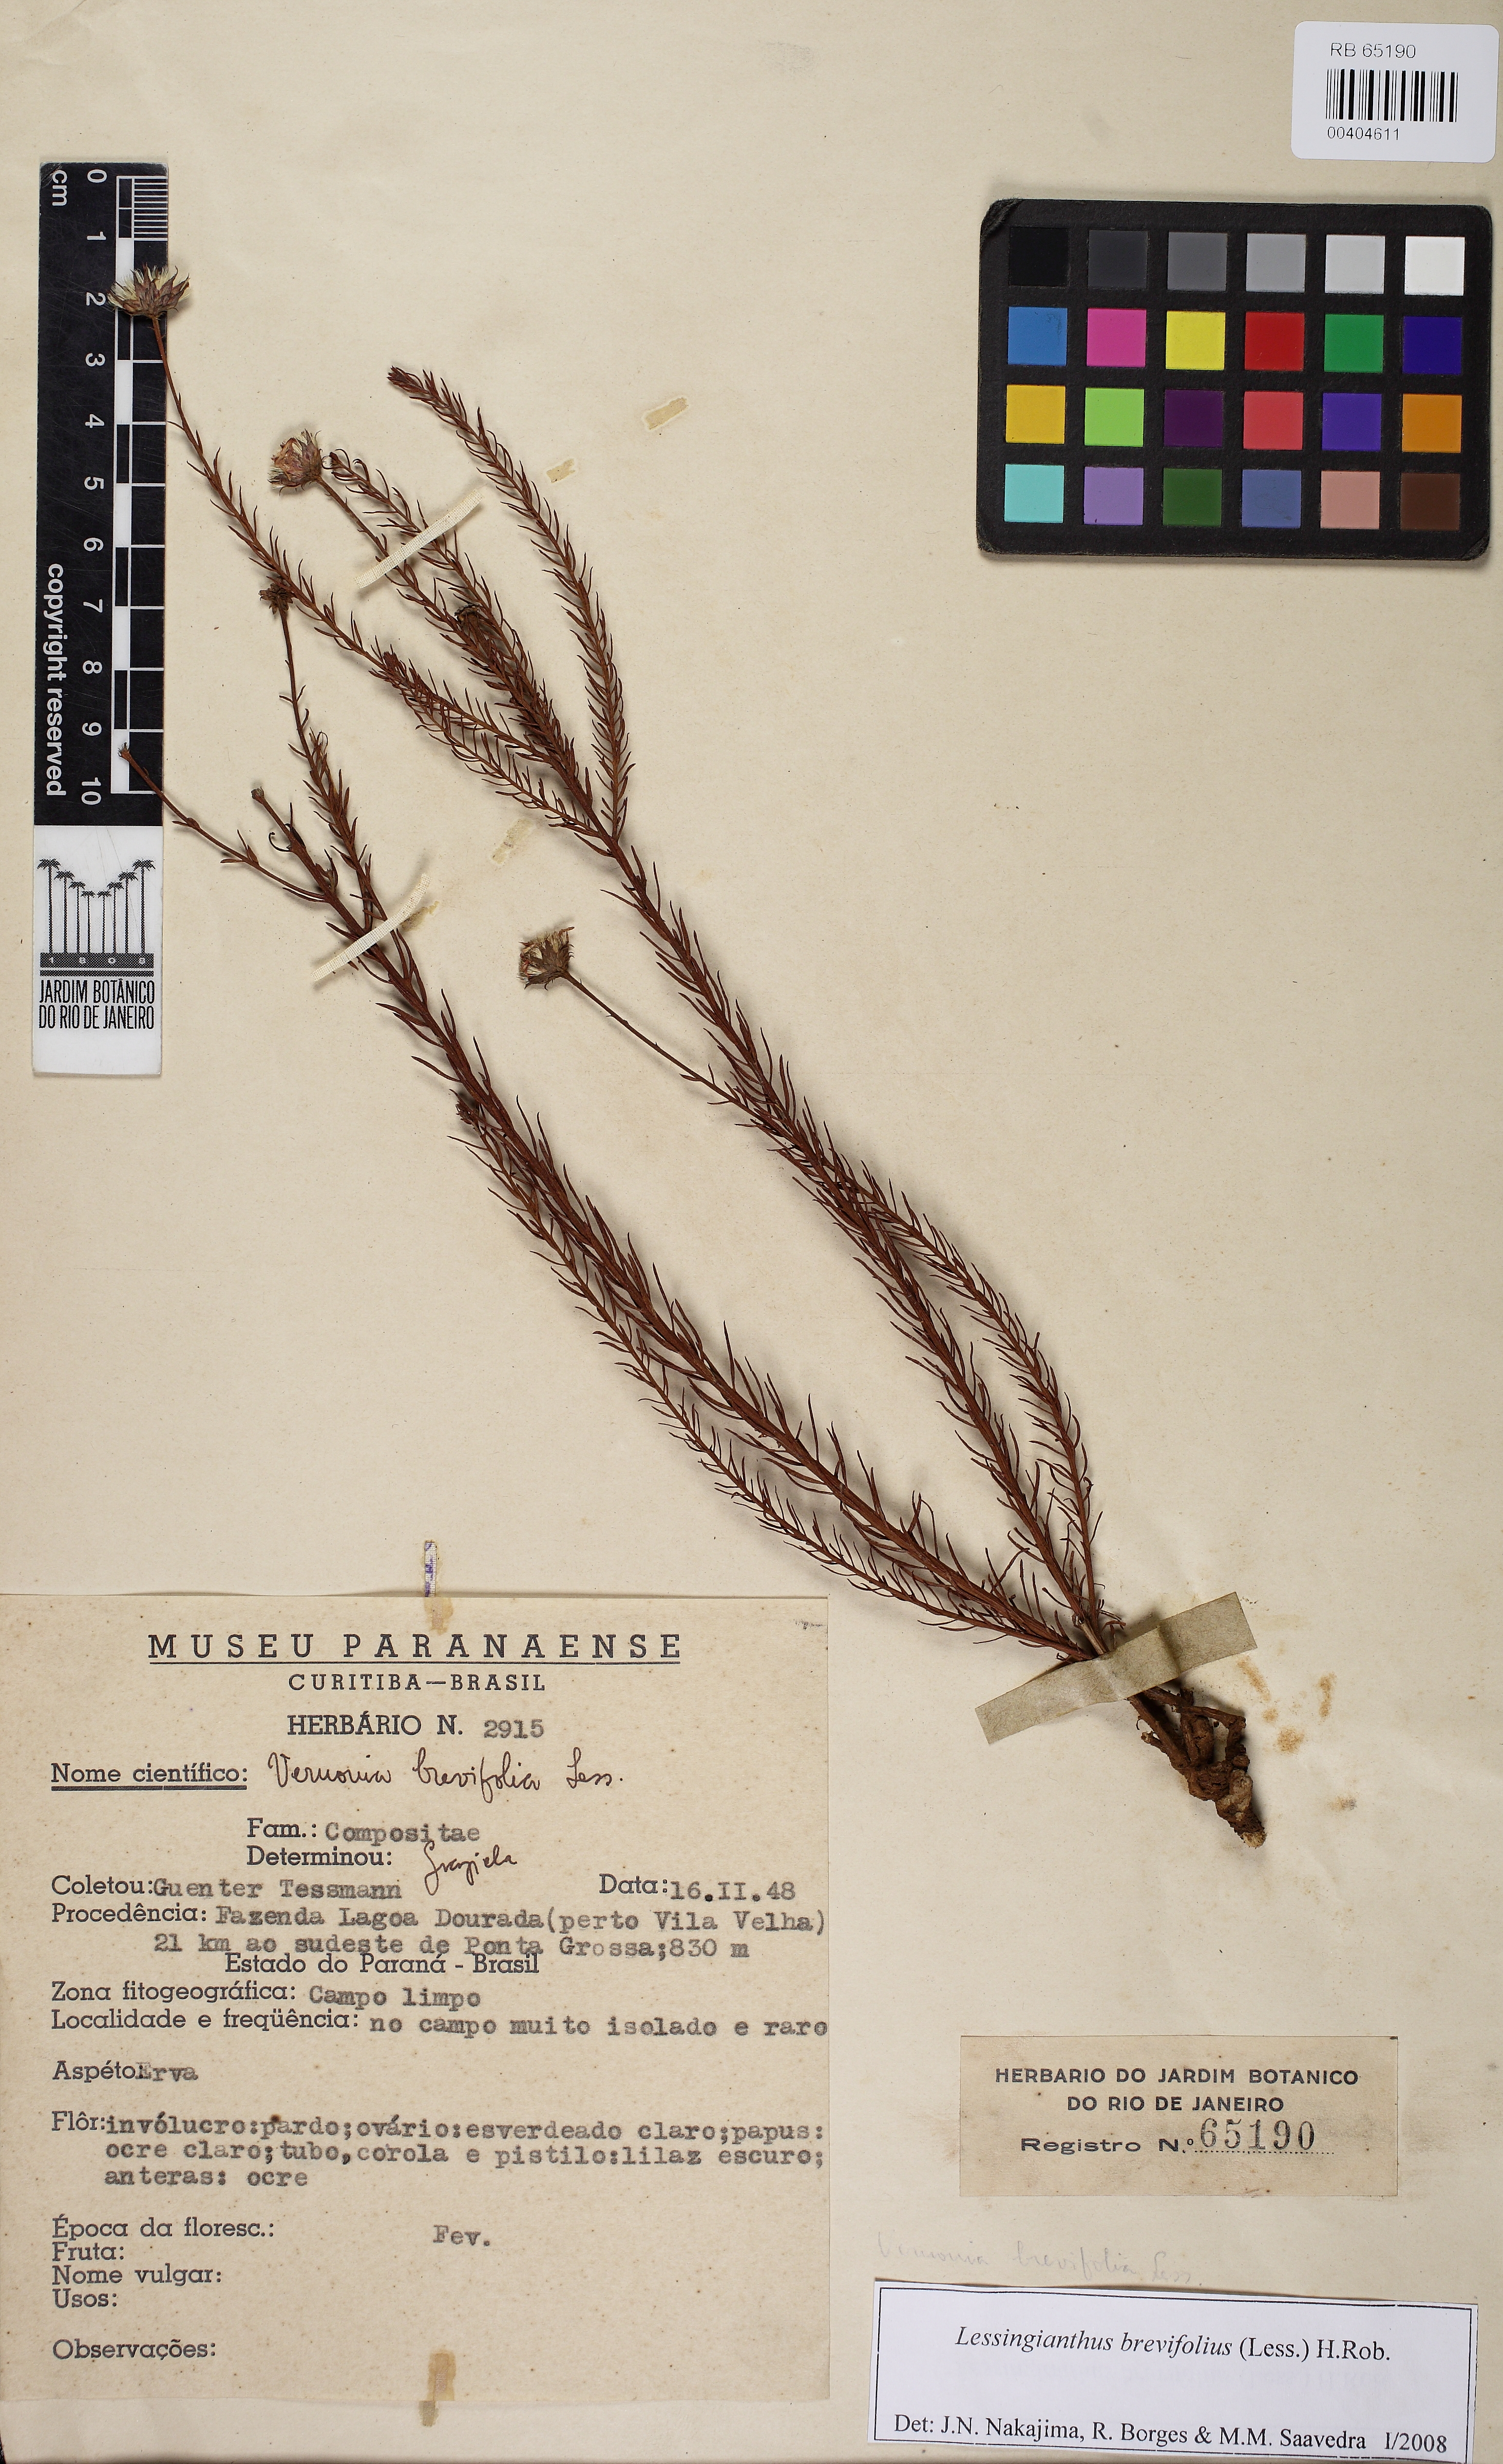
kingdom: Plantae
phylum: Tracheophyta
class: Magnoliopsida
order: Asterales
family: Asteraceae
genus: Lessingianthus
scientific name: Lessingianthus brevifolius
